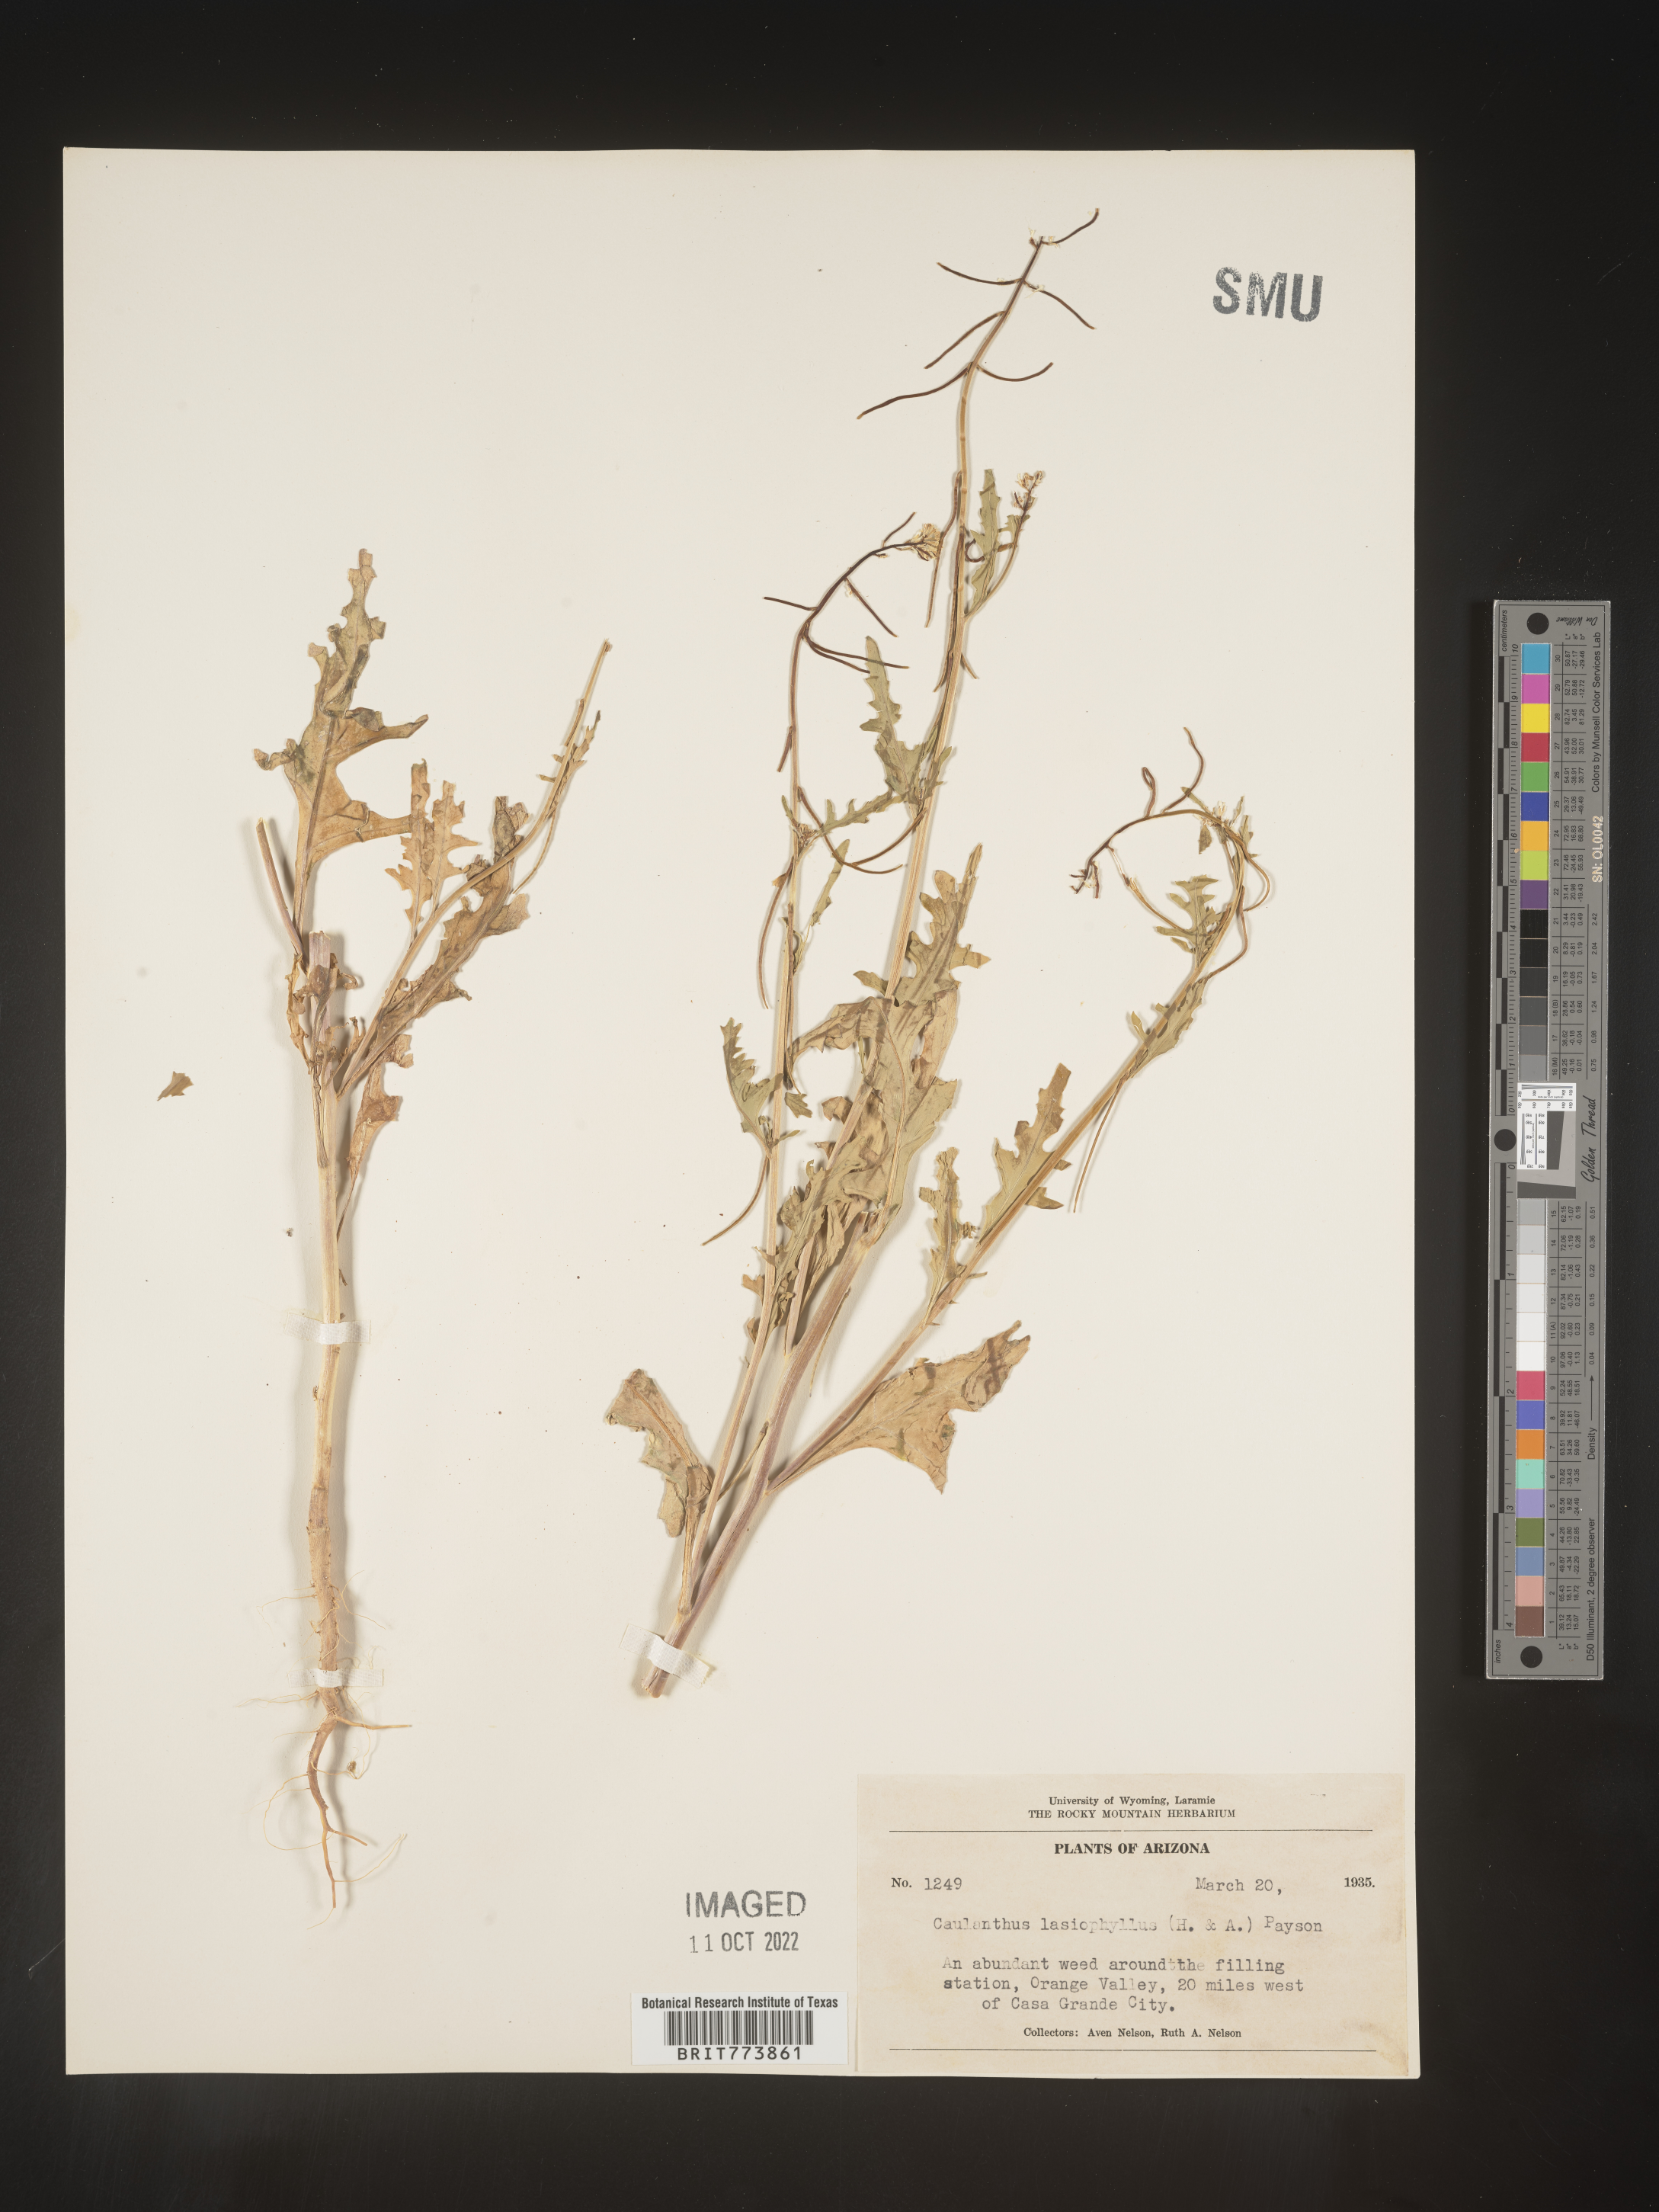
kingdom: Plantae
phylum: Tracheophyta
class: Magnoliopsida
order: Brassicales
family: Brassicaceae
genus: Streptanthus
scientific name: Streptanthus
